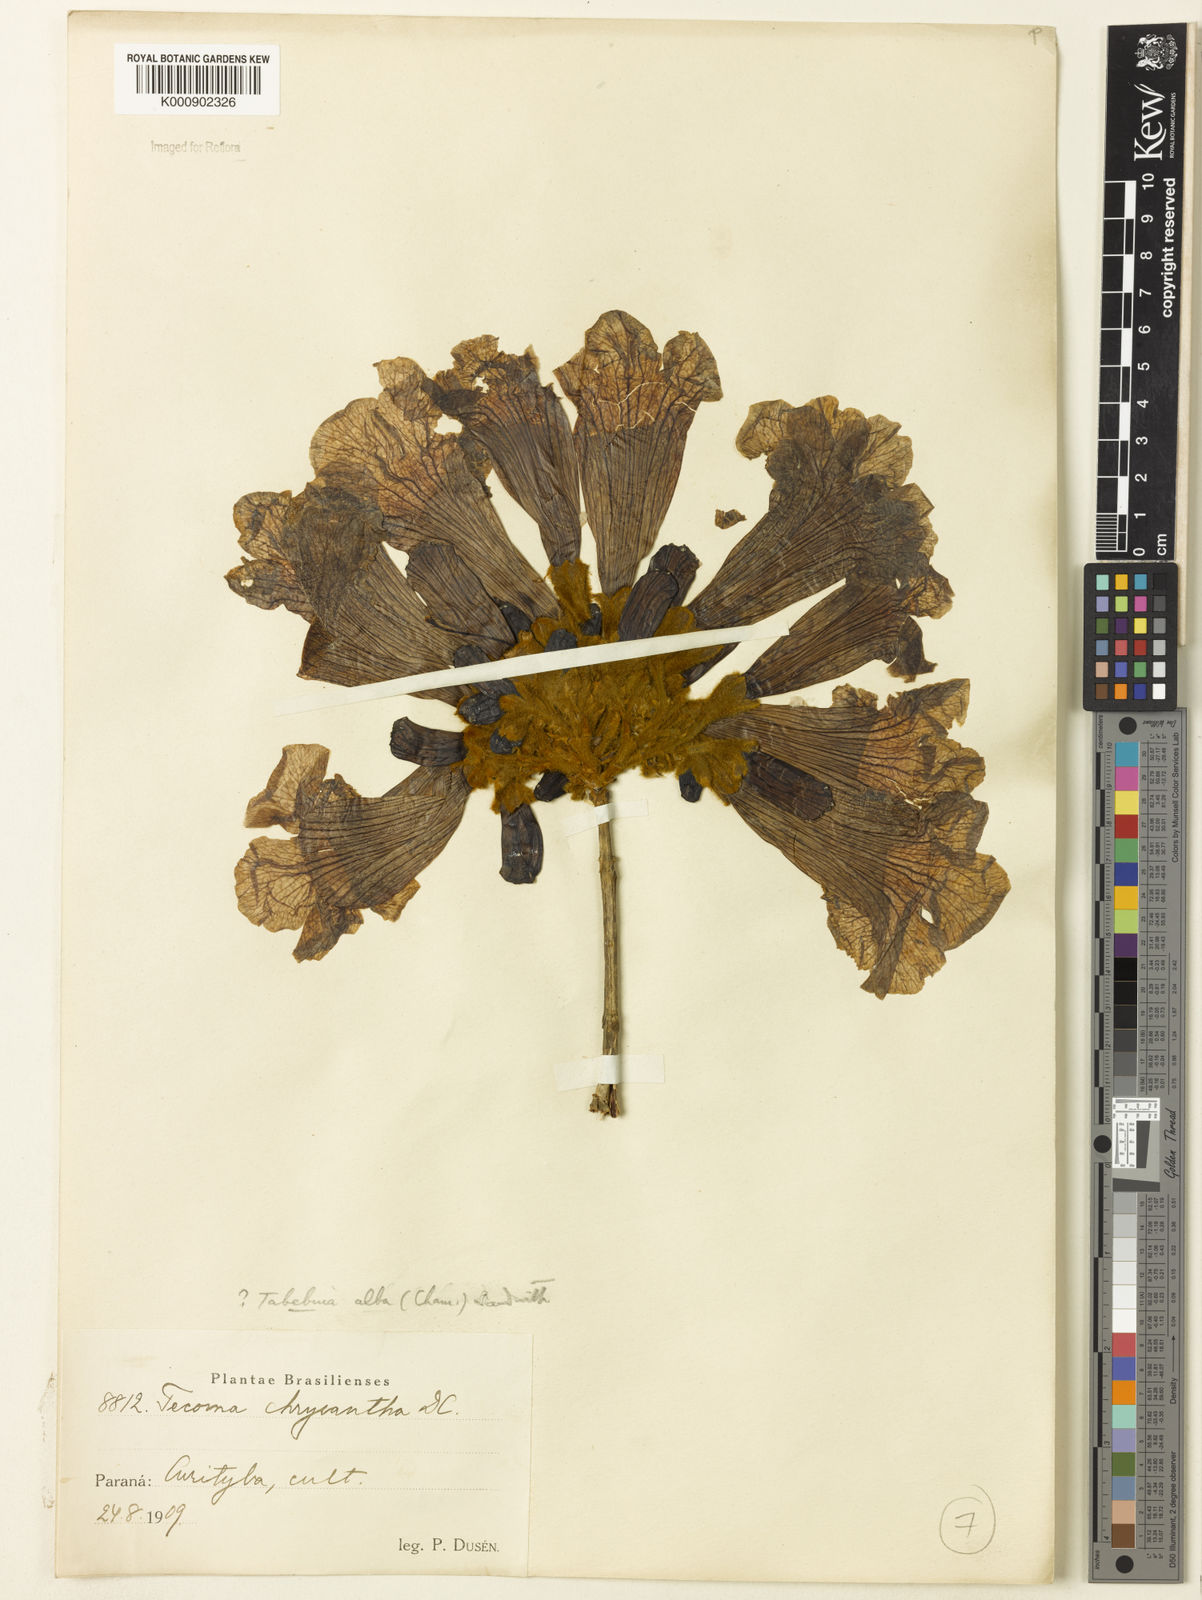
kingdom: Plantae
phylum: Tracheophyta
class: Magnoliopsida
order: Lamiales
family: Bignoniaceae
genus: Handroanthus
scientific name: Handroanthus albus
